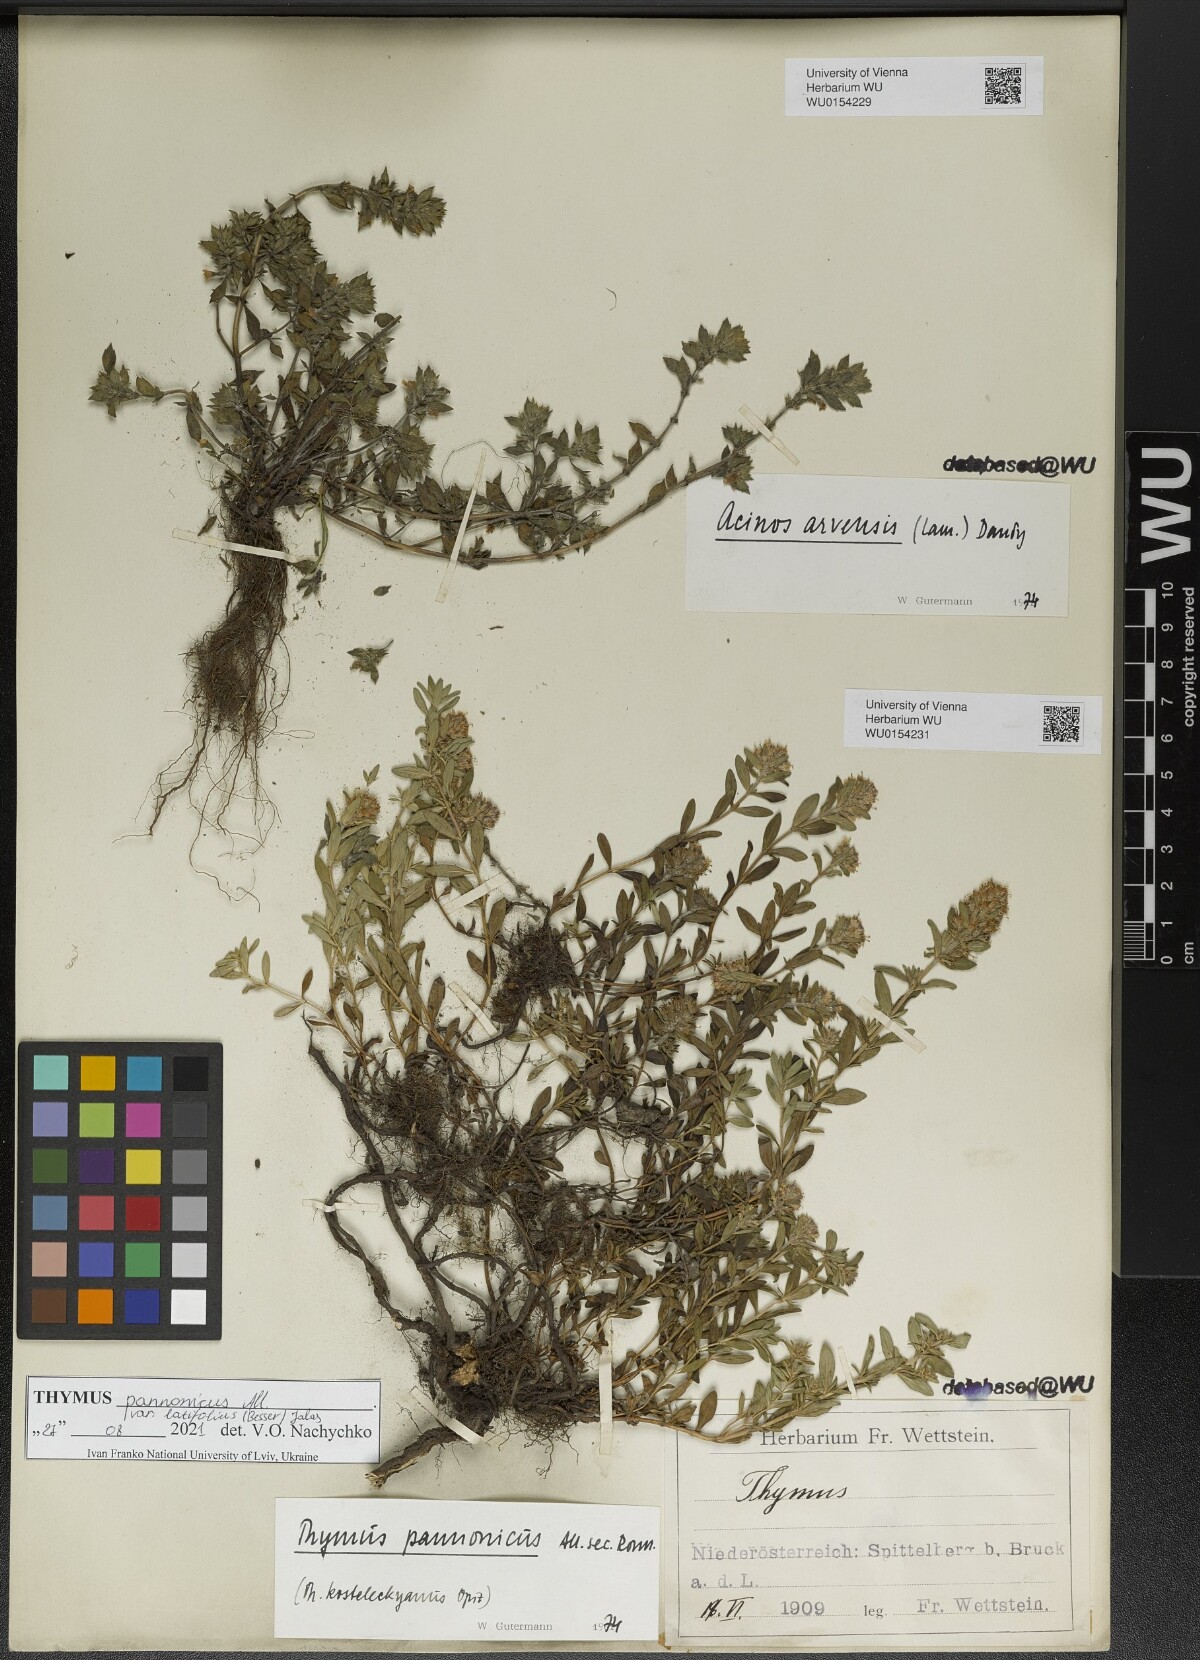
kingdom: Plantae
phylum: Tracheophyta
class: Magnoliopsida
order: Lamiales
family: Lamiaceae
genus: Thymus
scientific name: Thymus pannonicus
